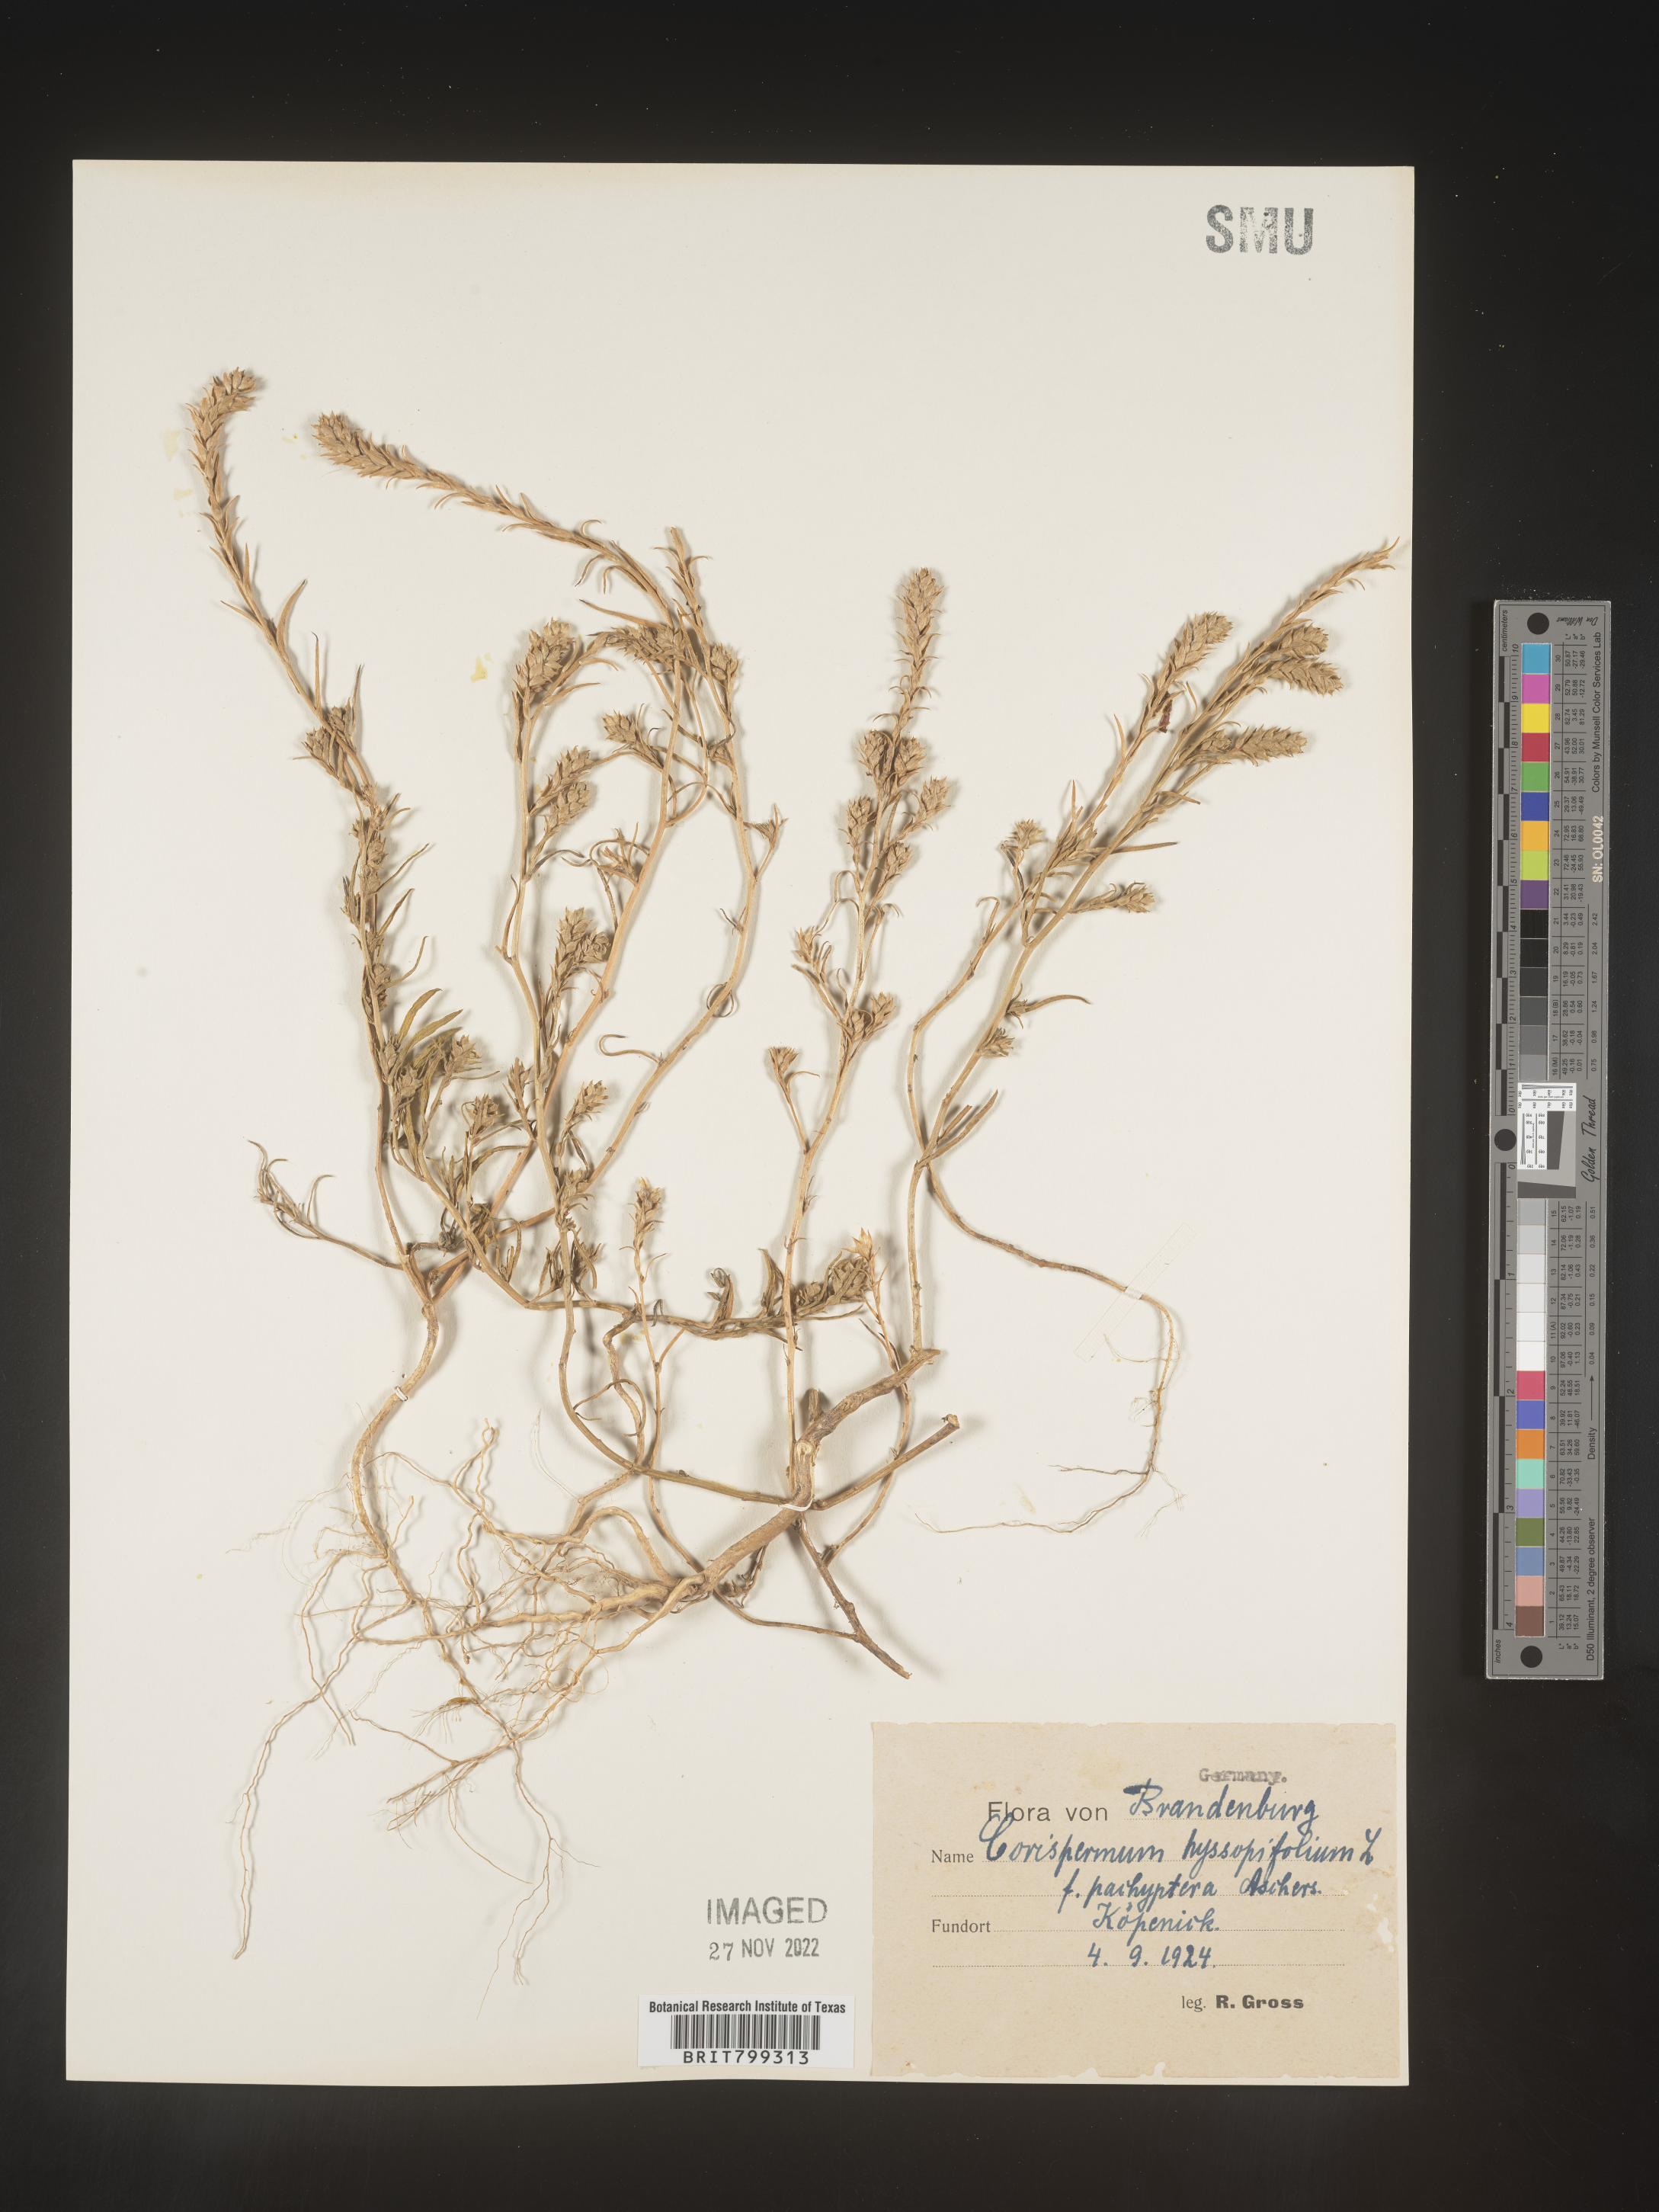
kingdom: Plantae
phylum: Tracheophyta
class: Magnoliopsida
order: Caryophyllales
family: Amaranthaceae
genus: Corispermum
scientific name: Corispermum
